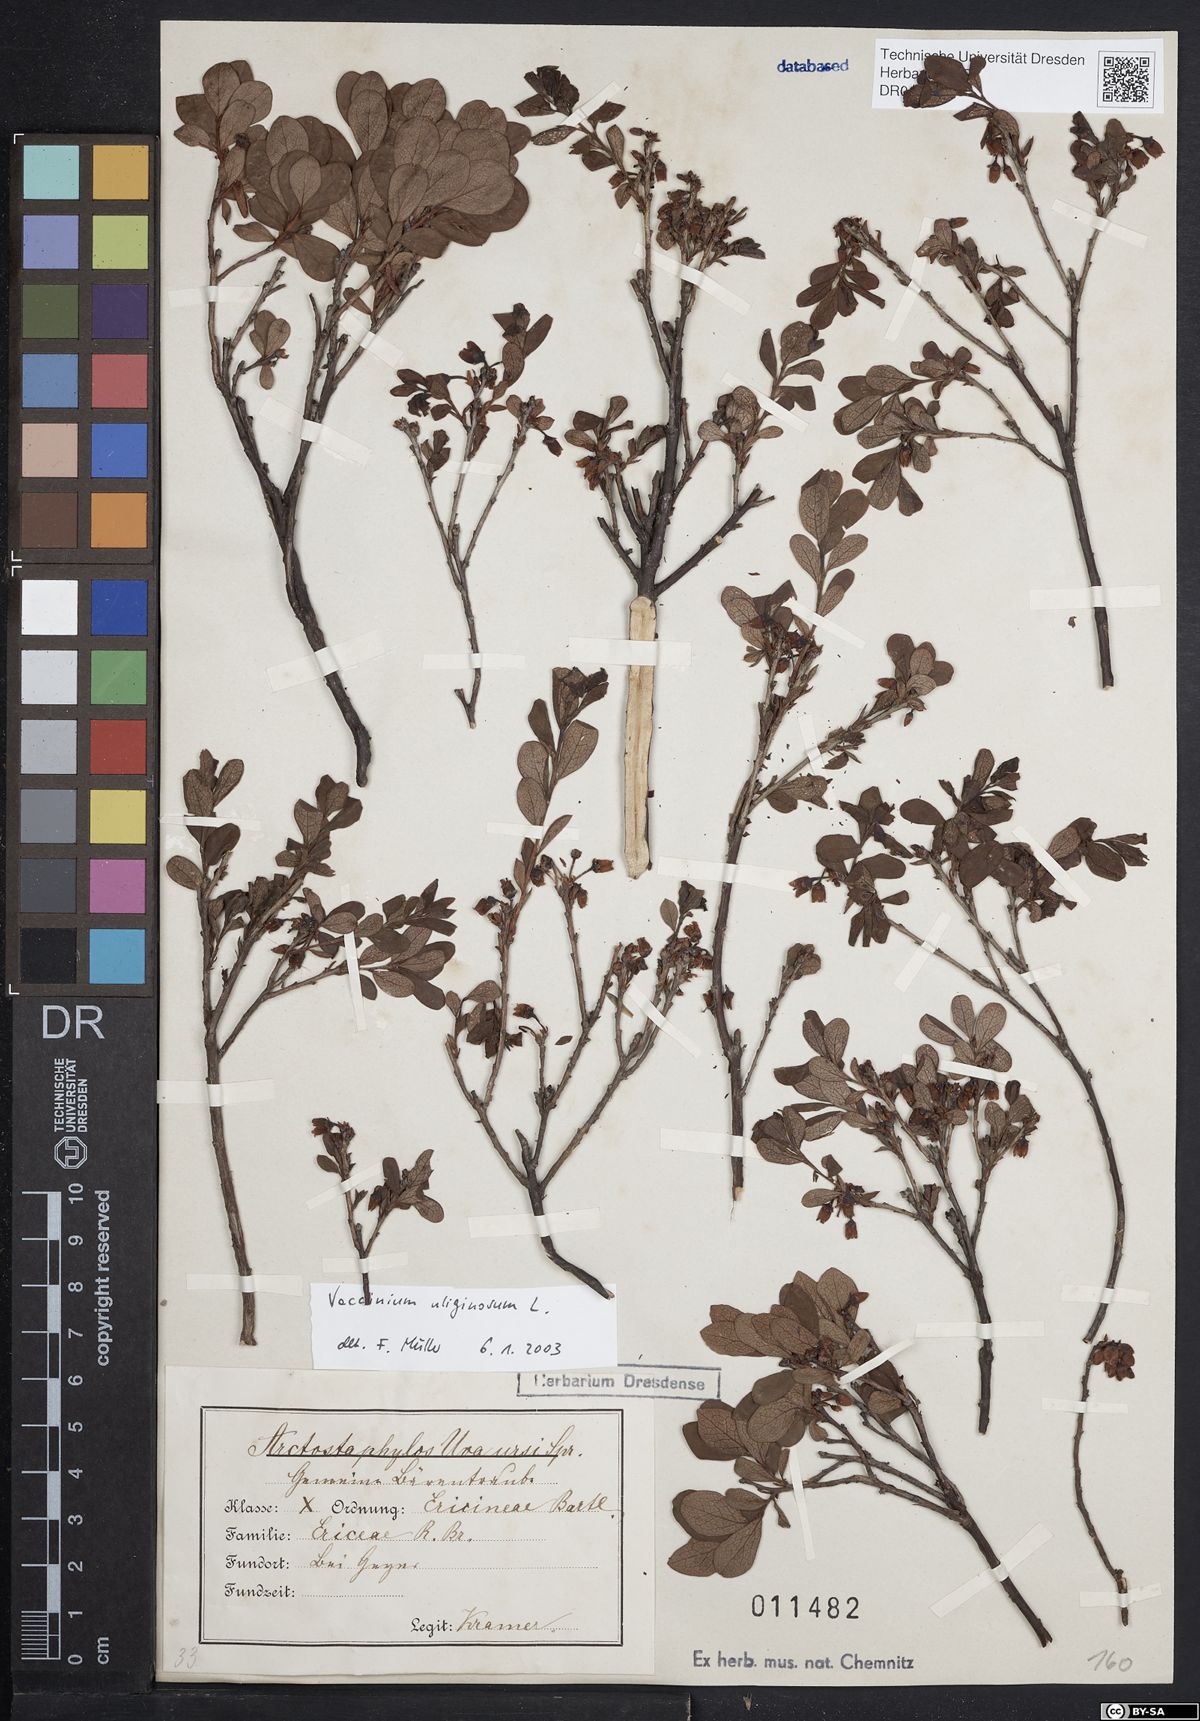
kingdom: Plantae
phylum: Tracheophyta
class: Magnoliopsida
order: Ericales
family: Ericaceae
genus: Vaccinium
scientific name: Vaccinium uliginosum
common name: Bog bilberry
